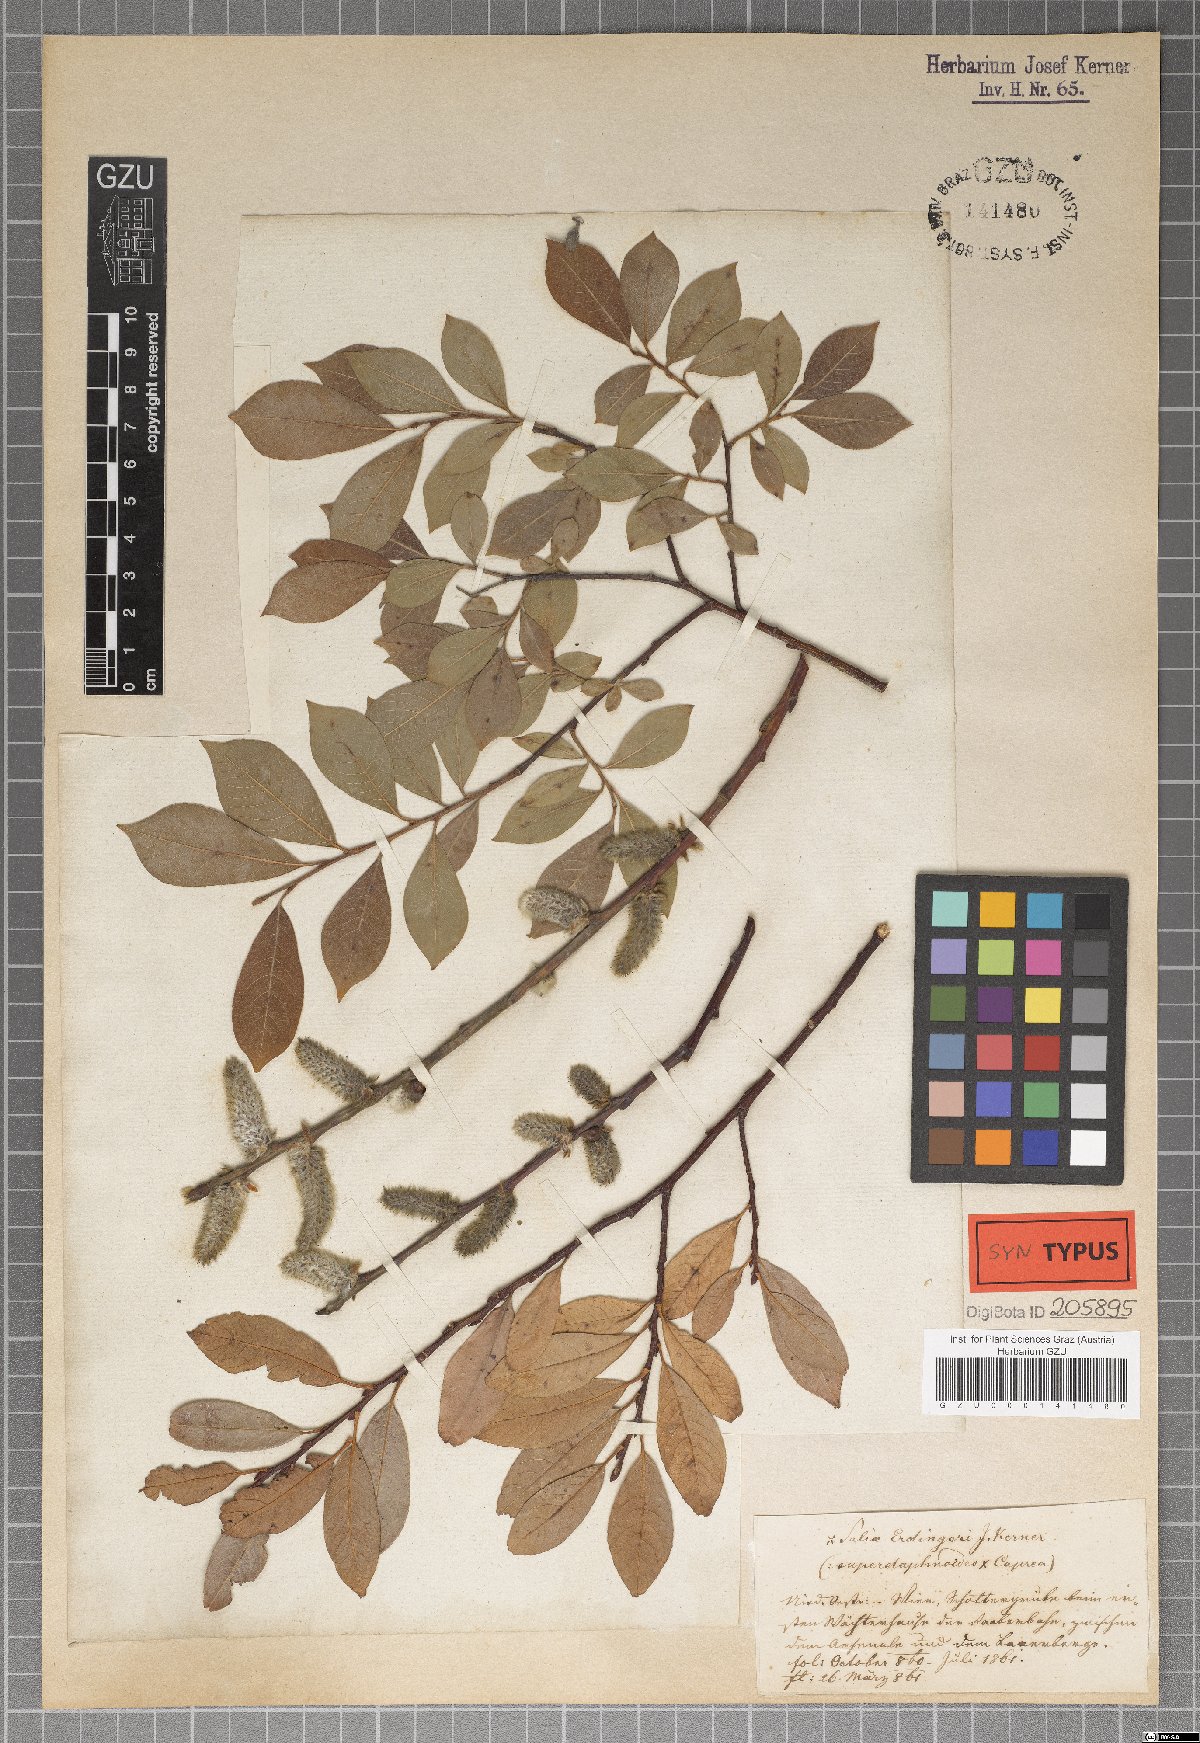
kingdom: Plantae
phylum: Tracheophyta
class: Magnoliopsida
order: Malpighiales
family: Salicaceae
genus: Salix
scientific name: Salix erdingeri
